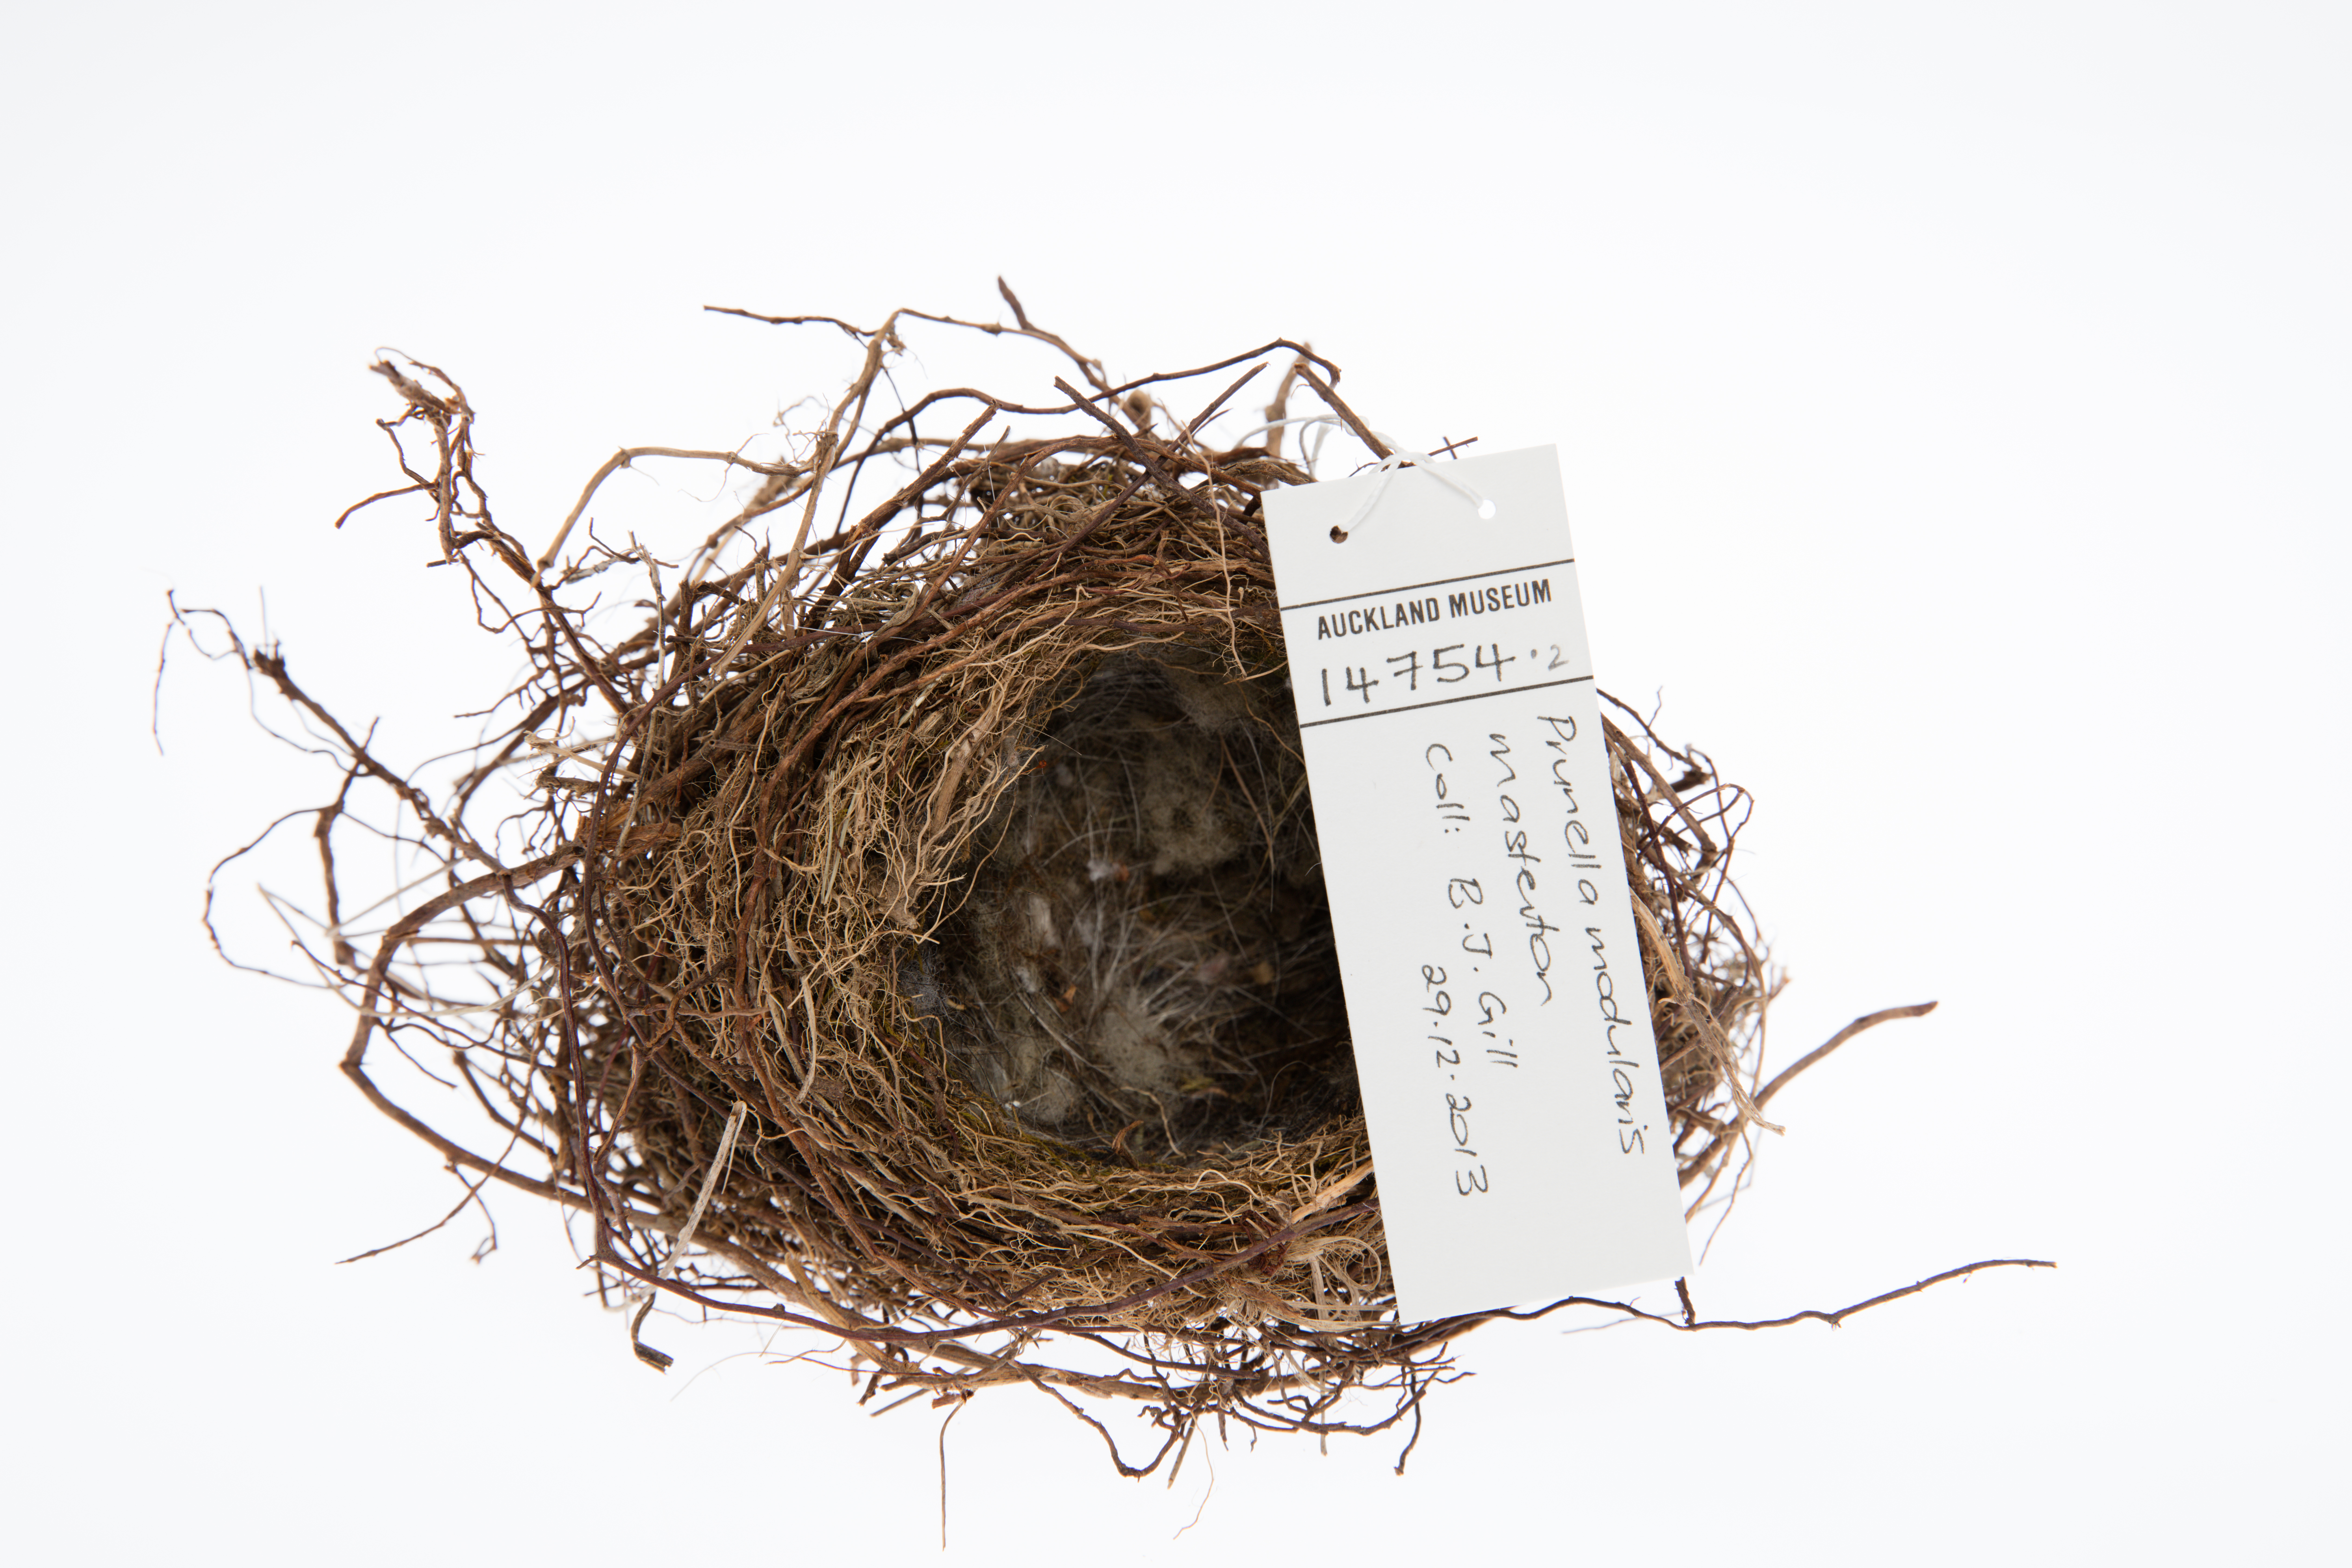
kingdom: Animalia
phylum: Chordata
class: Aves
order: Passeriformes
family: Prunellidae
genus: Prunella
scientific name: Prunella modularis
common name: Dunnock
